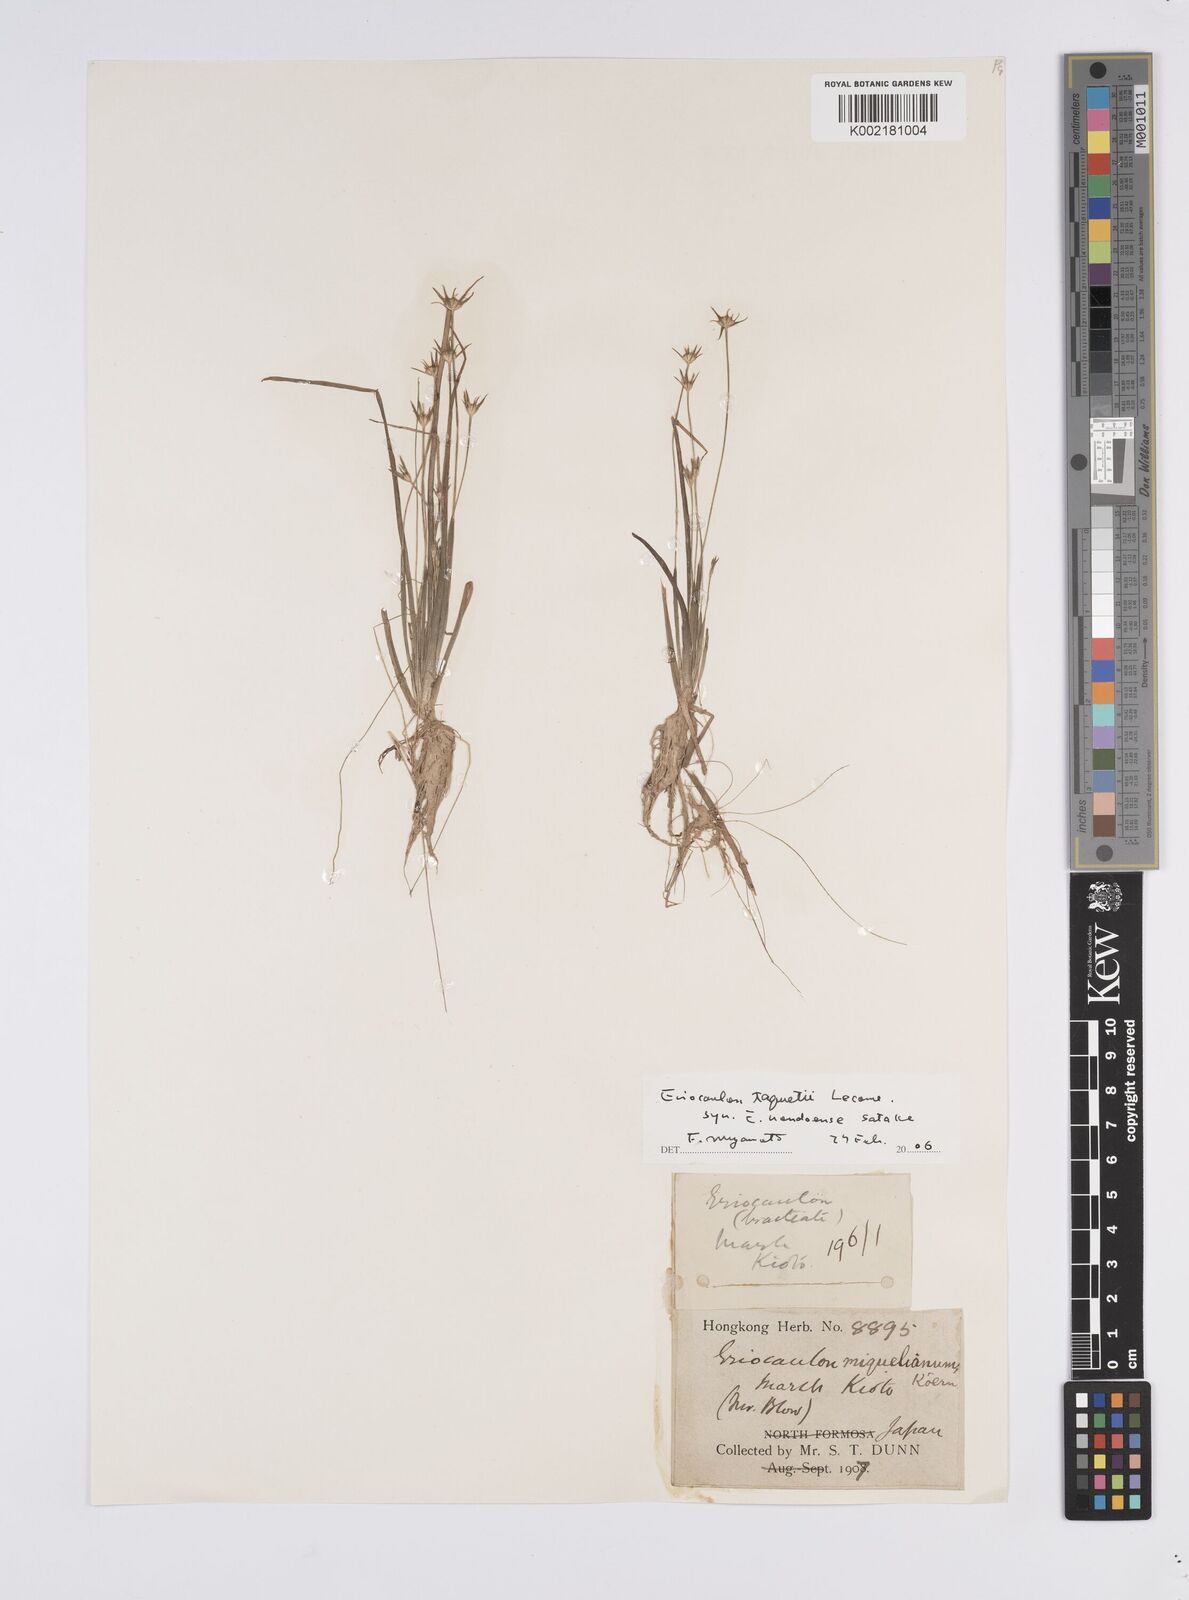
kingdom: Plantae
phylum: Tracheophyta
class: Liliopsida
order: Poales
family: Eriocaulaceae
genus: Eriocaulon
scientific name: Eriocaulon miquelianum
